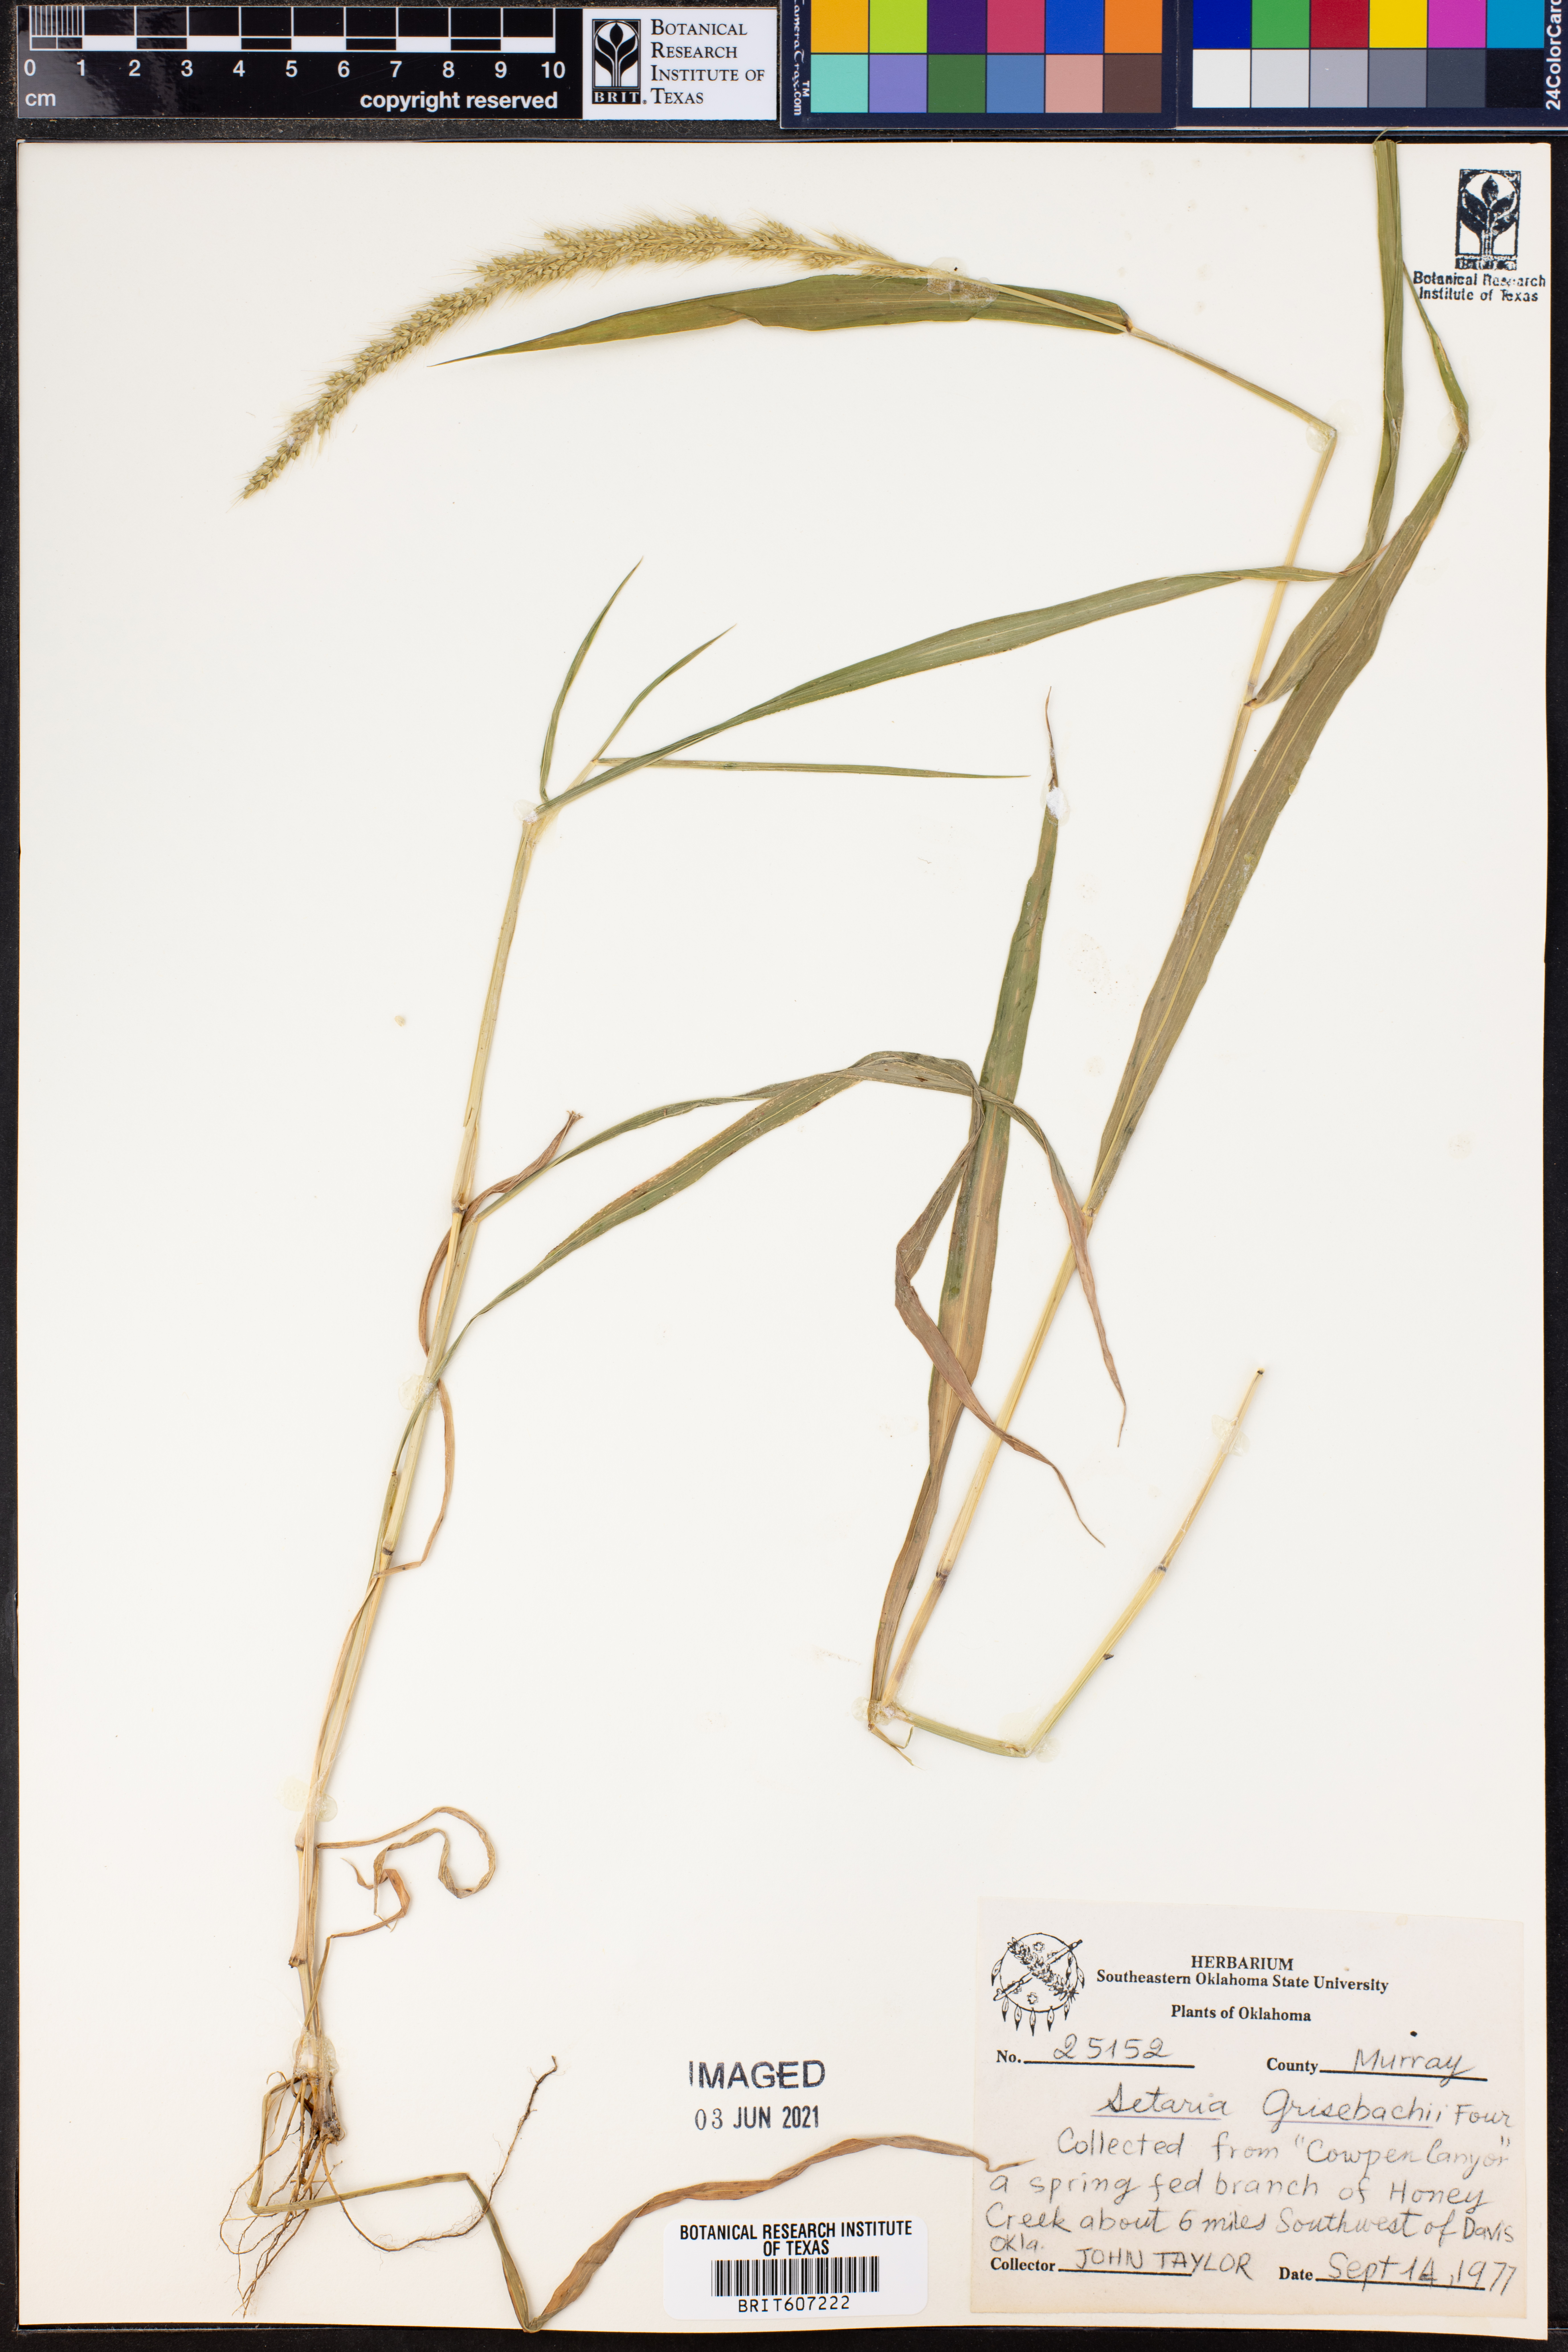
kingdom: Plantae
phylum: Tracheophyta
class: Liliopsida
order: Poales
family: Poaceae
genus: Setaria
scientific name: Setaria grisebachii
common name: Grisebach's bristle grass
